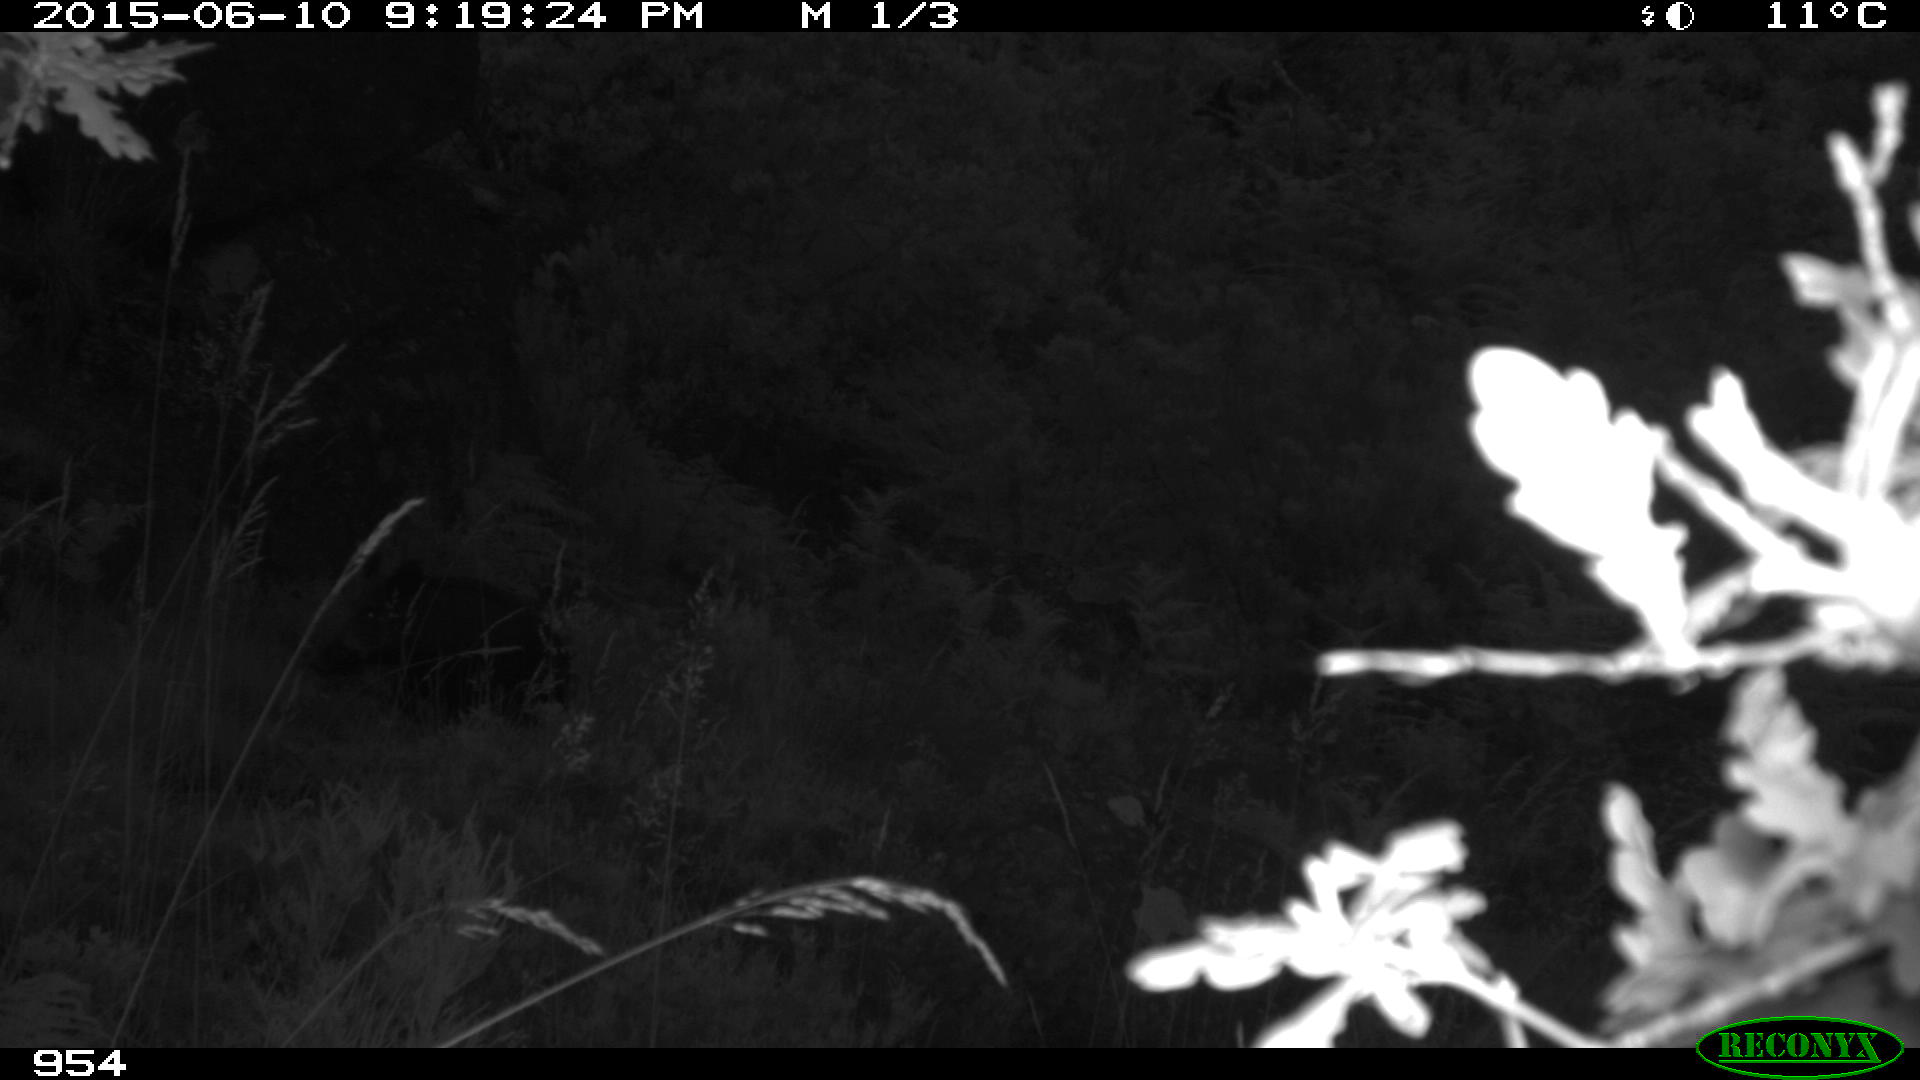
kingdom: Animalia
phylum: Chordata
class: Mammalia
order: Artiodactyla
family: Suidae
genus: Sus
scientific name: Sus scrofa
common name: Wild boar
